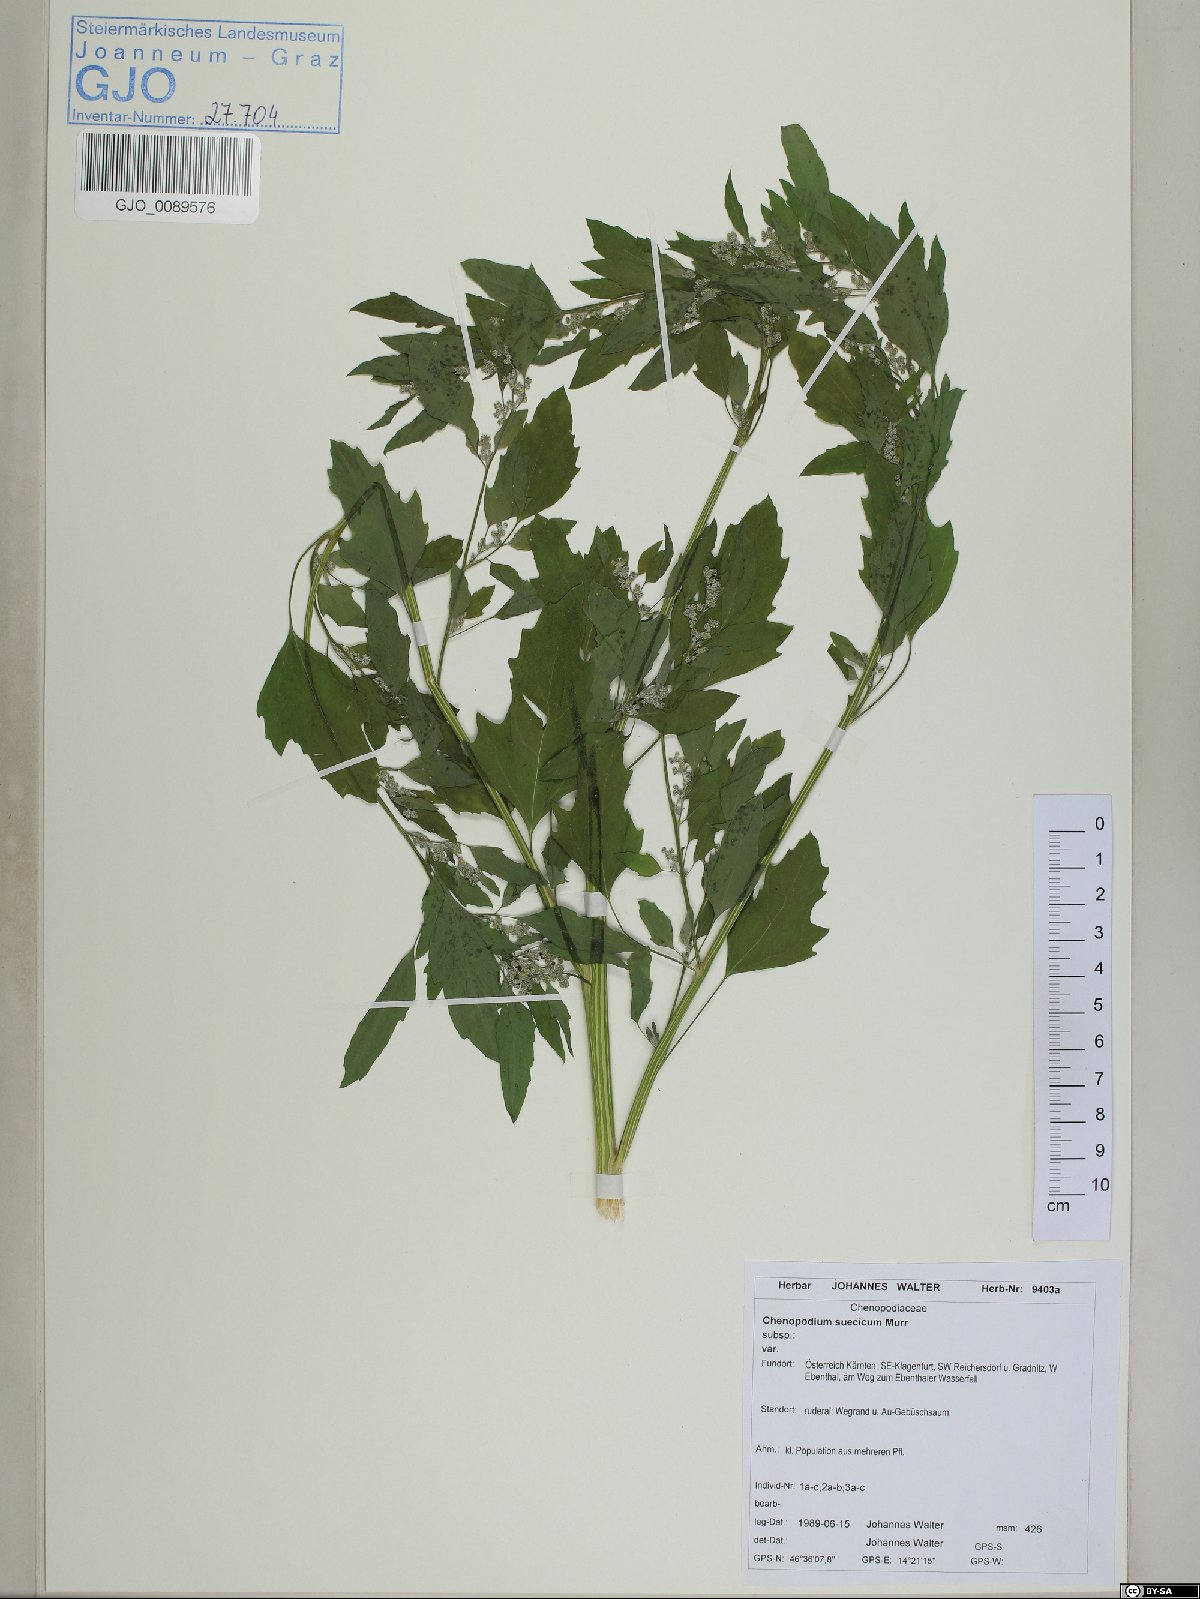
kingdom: Plantae
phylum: Tracheophyta
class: Magnoliopsida
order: Caryophyllales
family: Amaranthaceae
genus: Chenopodium
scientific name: Chenopodium suecicum
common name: Swedish goosefoot
